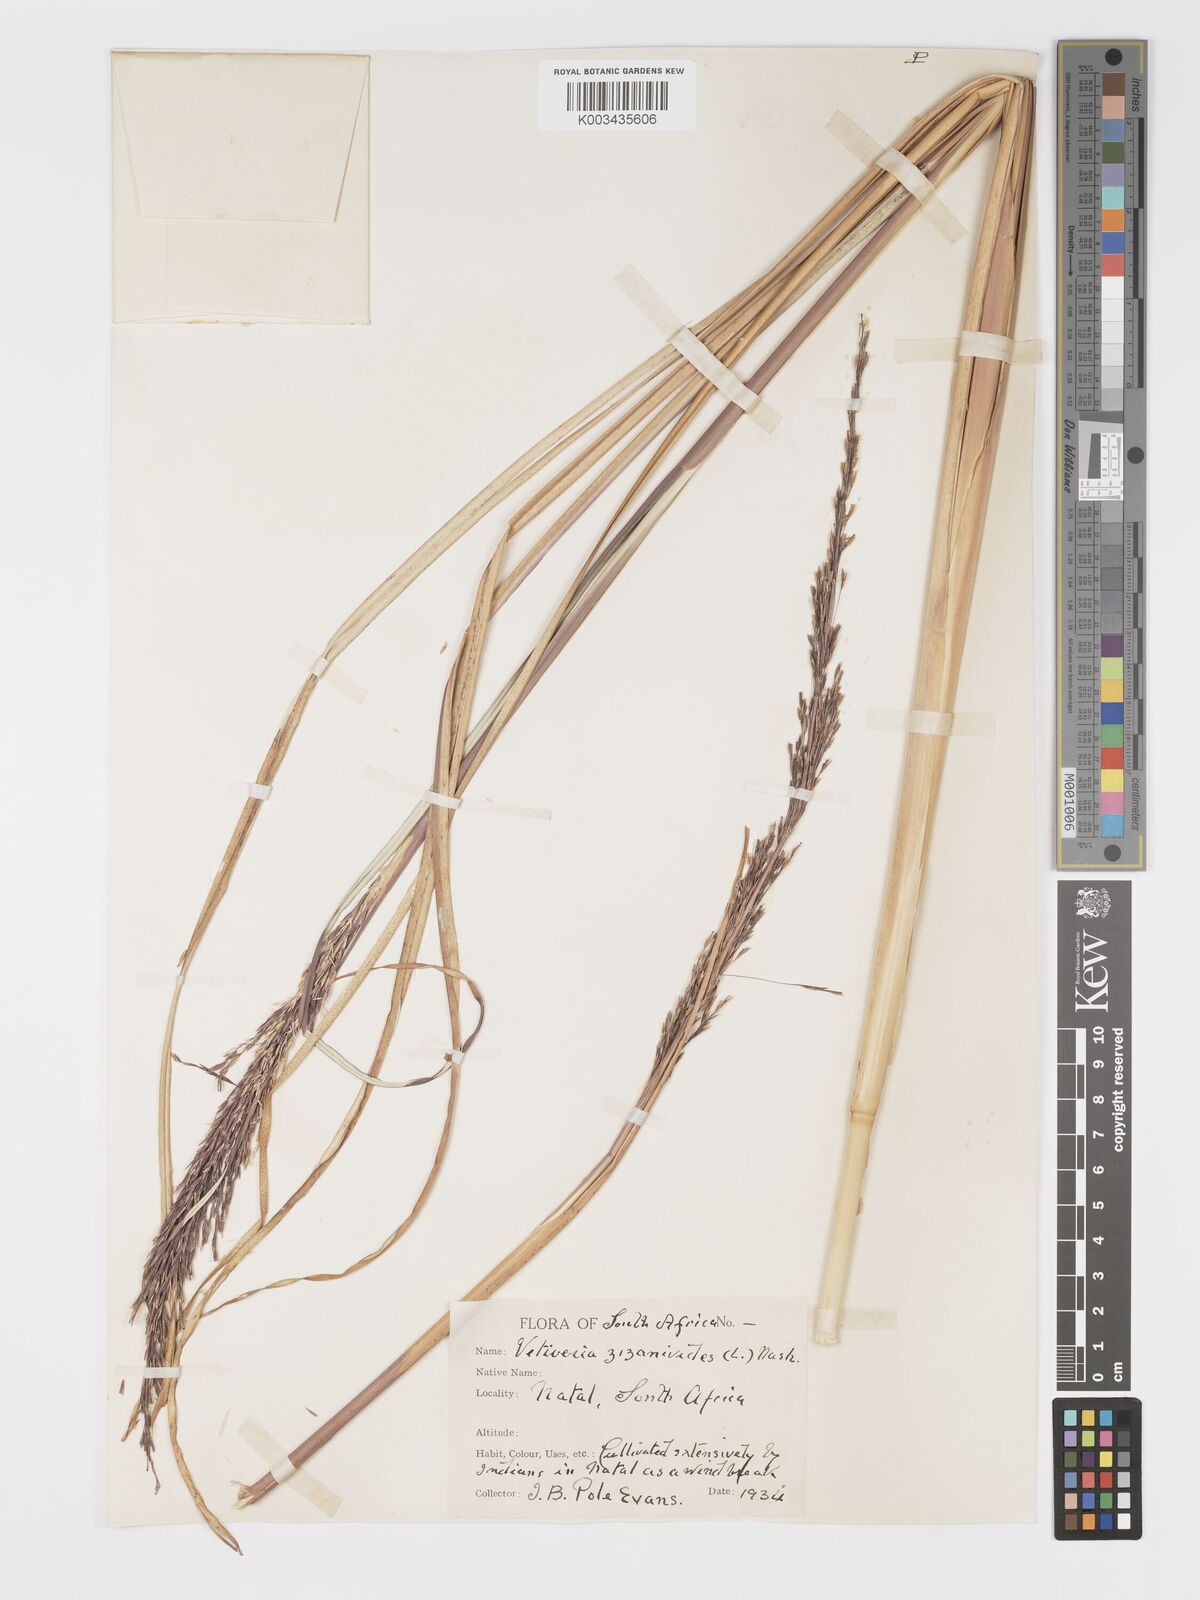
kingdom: Plantae
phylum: Tracheophyta
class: Liliopsida
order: Poales
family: Poaceae
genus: Chrysopogon
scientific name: Chrysopogon zizanioides
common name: False beardgrass
